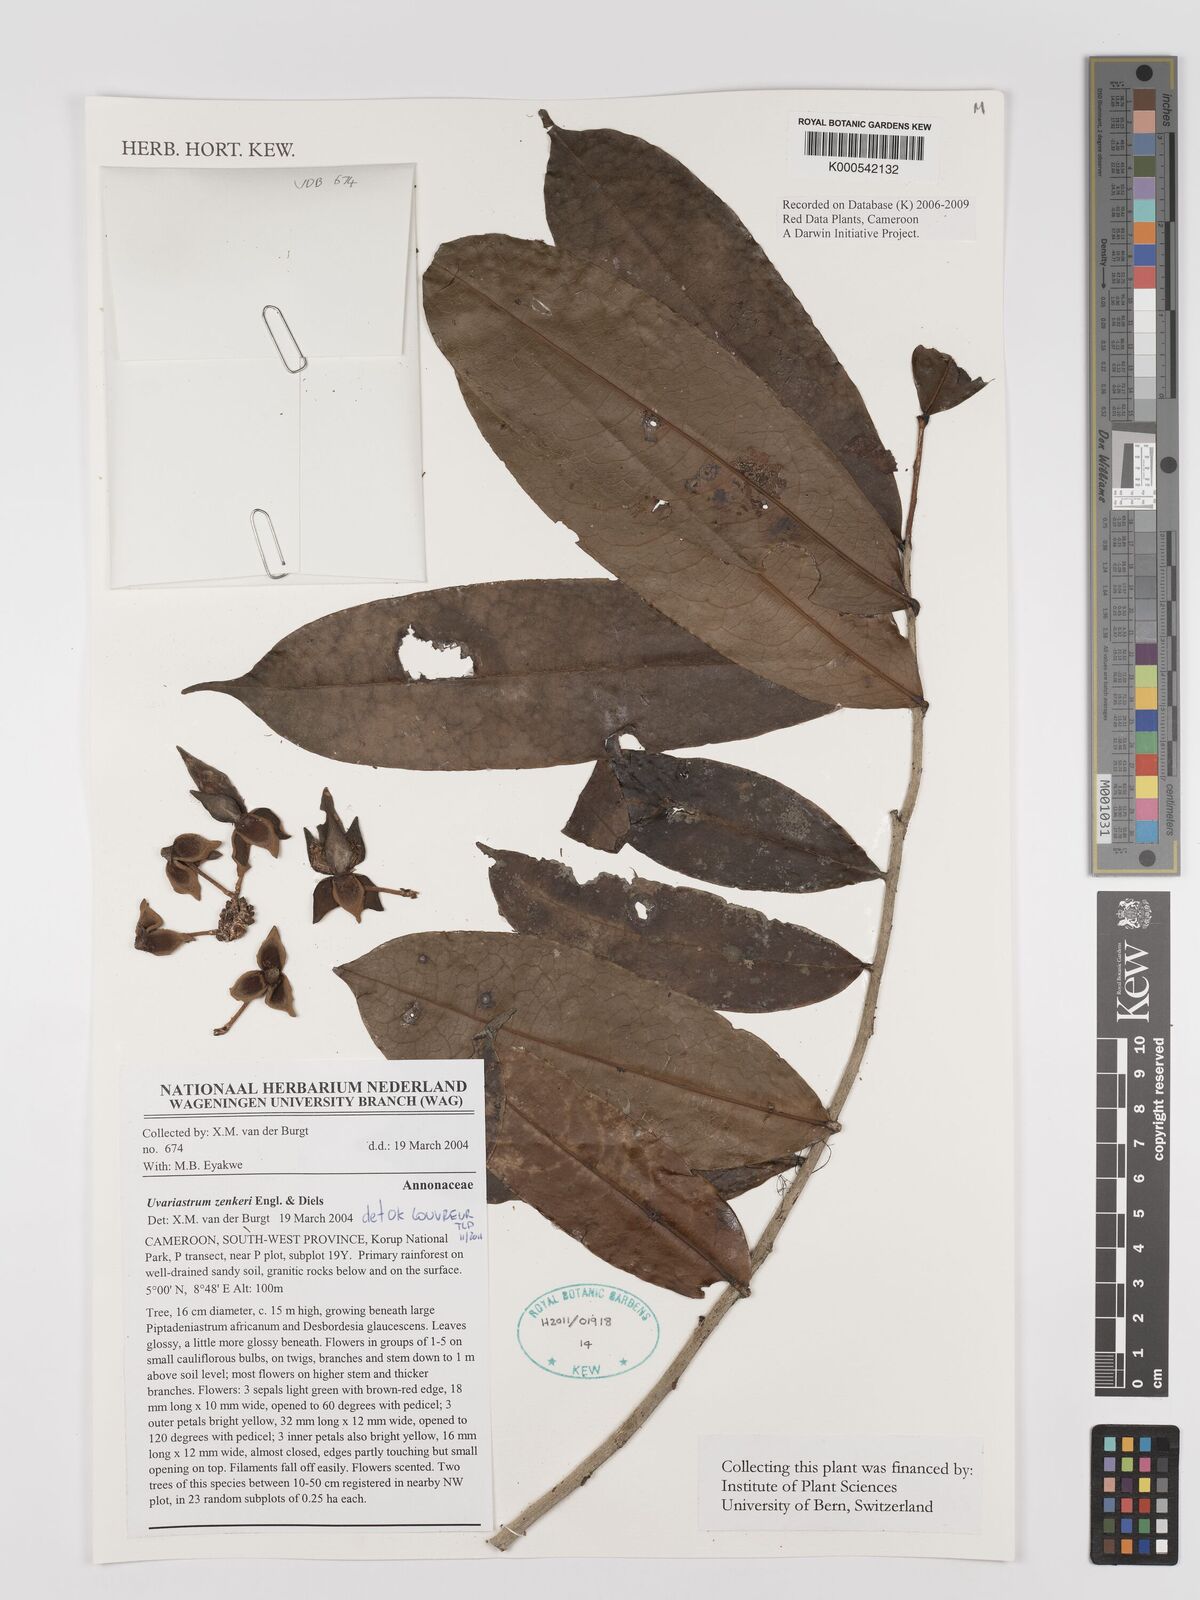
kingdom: Plantae
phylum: Tracheophyta
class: Magnoliopsida
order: Magnoliales
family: Annonaceae
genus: Uvariastrum
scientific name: Uvariastrum zenkeri
